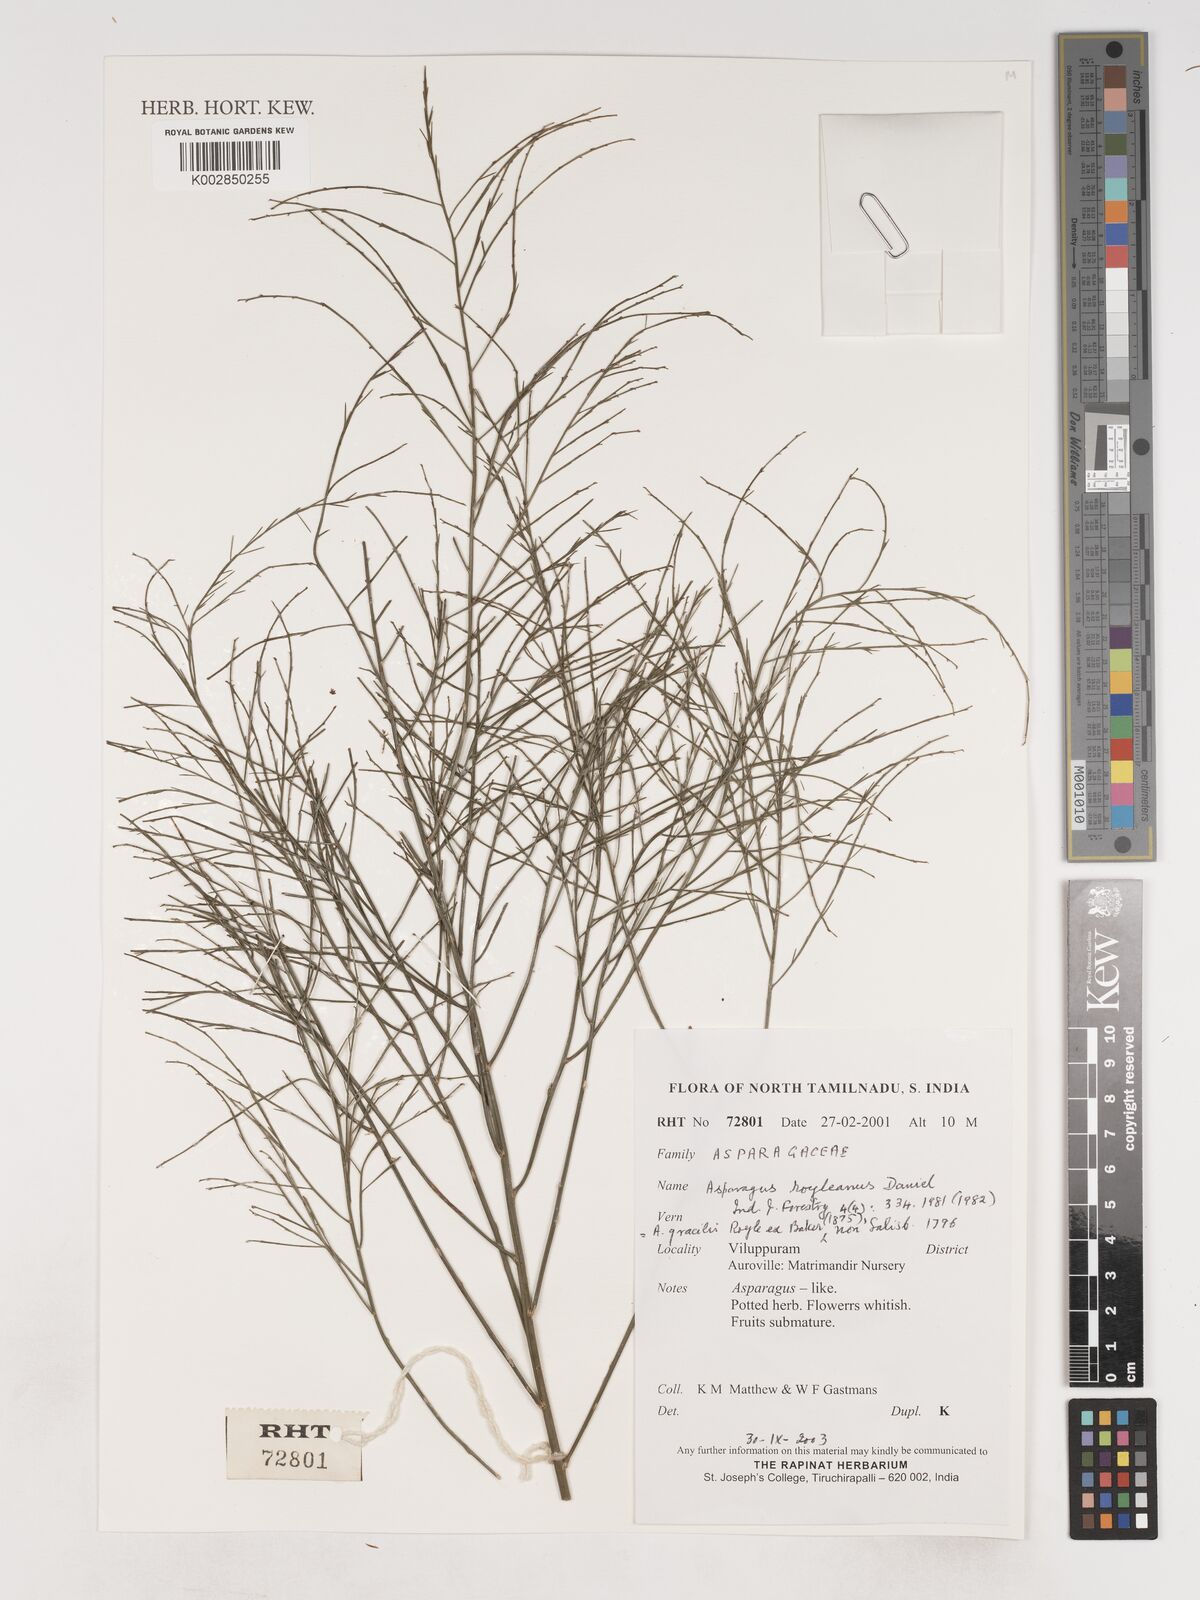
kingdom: Plantae
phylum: Tracheophyta
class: Liliopsida
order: Asparagales
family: Asparagaceae
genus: Asparagus
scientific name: Asparagus capitatus
